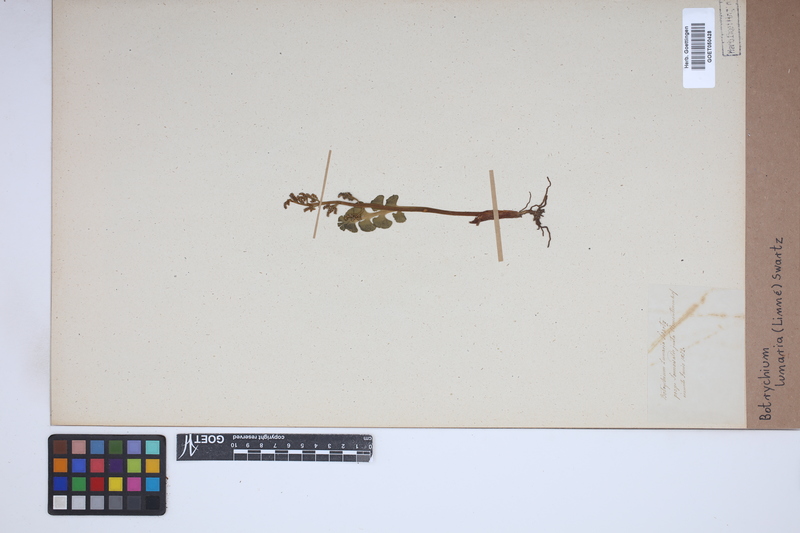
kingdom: Plantae
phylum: Tracheophyta
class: Polypodiopsida
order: Ophioglossales
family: Ophioglossaceae
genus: Botrychium
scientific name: Botrychium lunaria
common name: Moonwort
